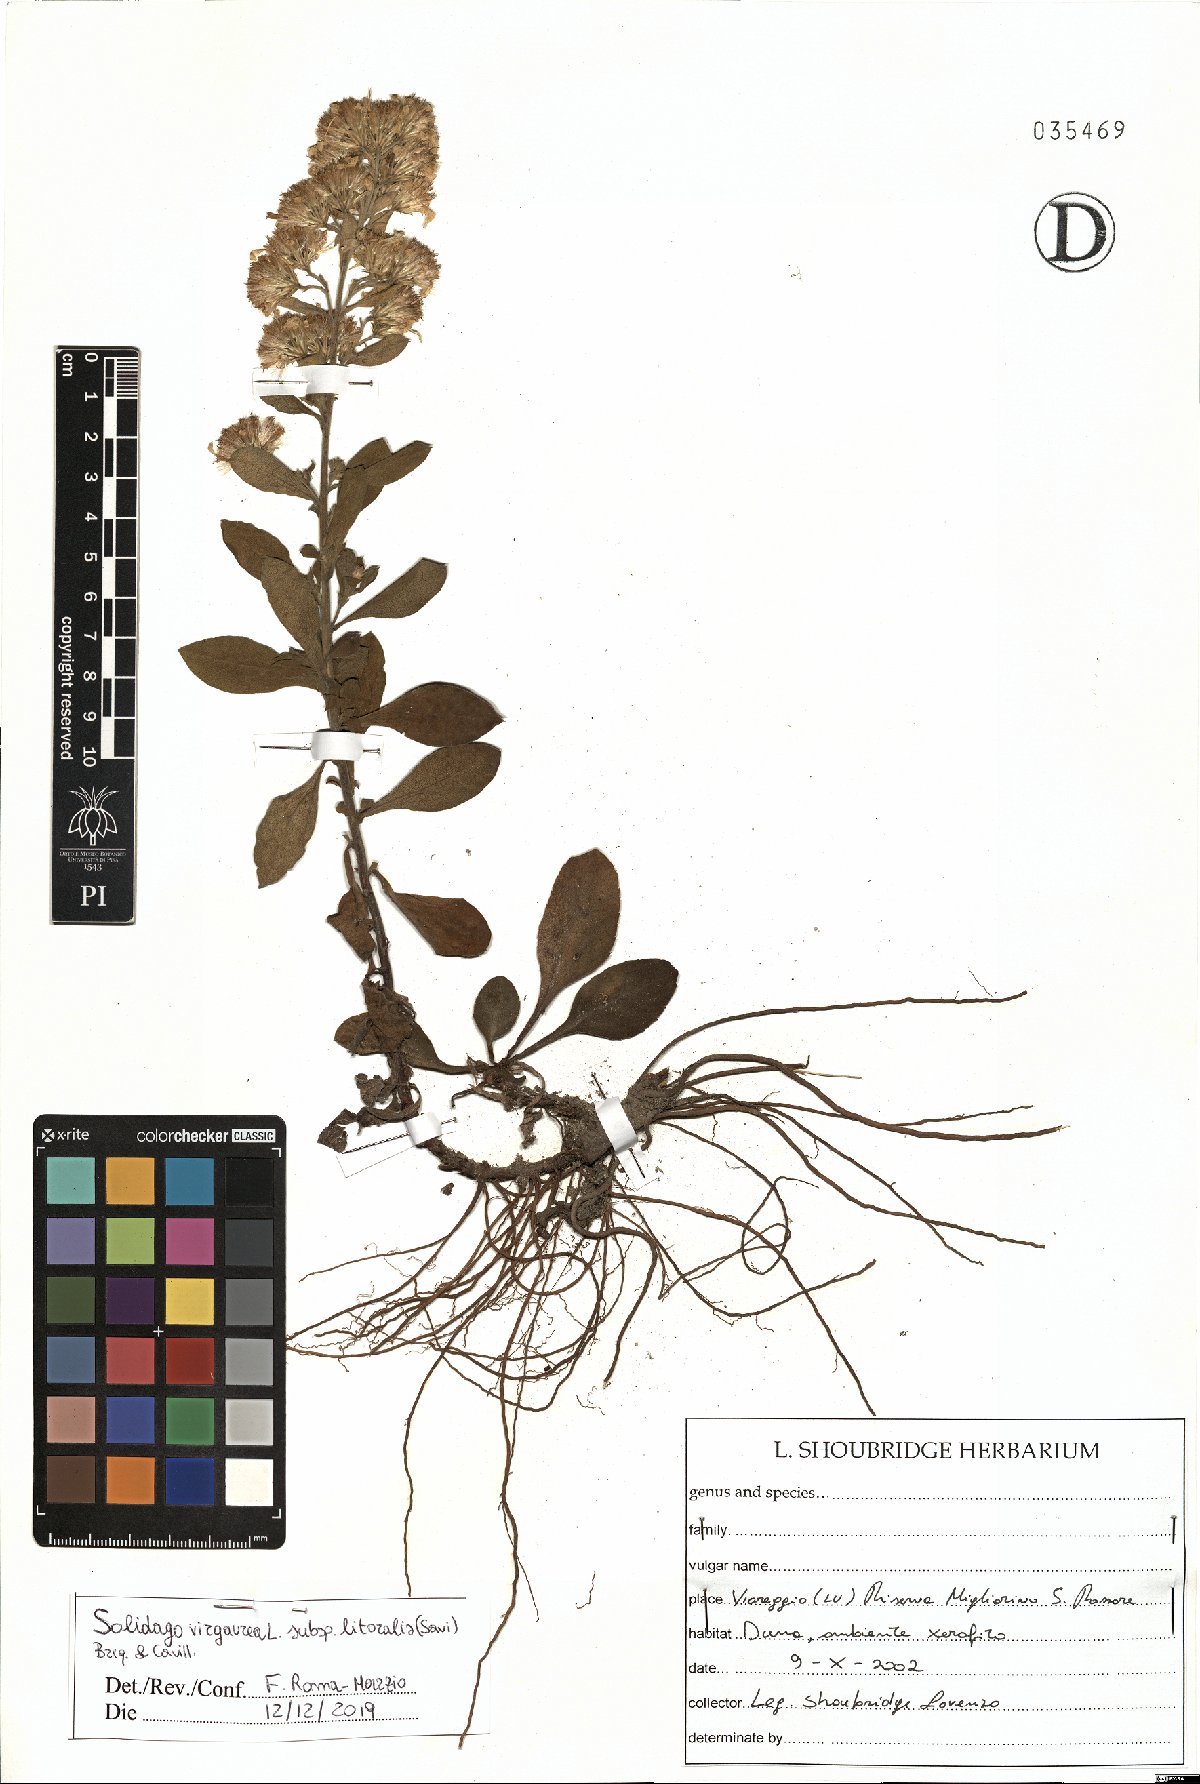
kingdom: Plantae
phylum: Tracheophyta
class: Magnoliopsida
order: Asterales
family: Asteraceae
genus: Solidago
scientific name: Solidago litoralis
